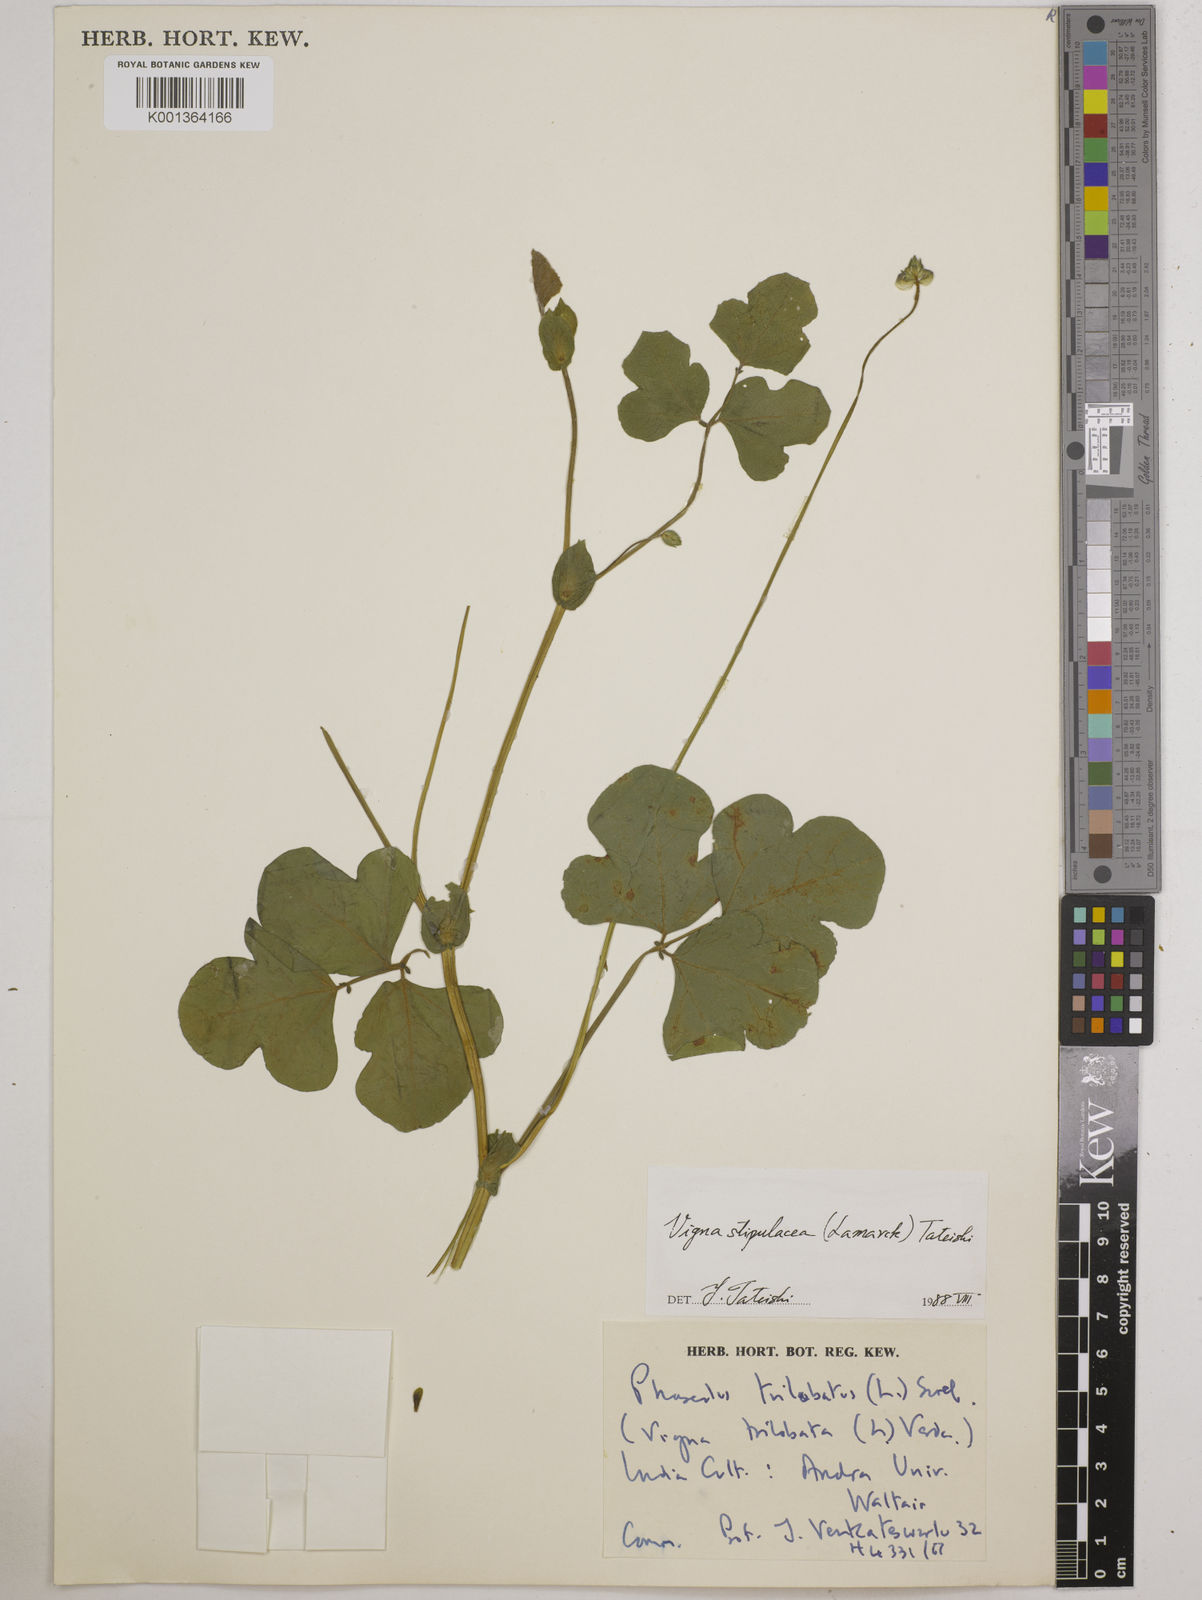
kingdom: Plantae
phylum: Tracheophyta
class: Magnoliopsida
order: Fabales
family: Fabaceae
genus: Vigna
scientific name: Vigna trilobata
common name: Jungli-bean
